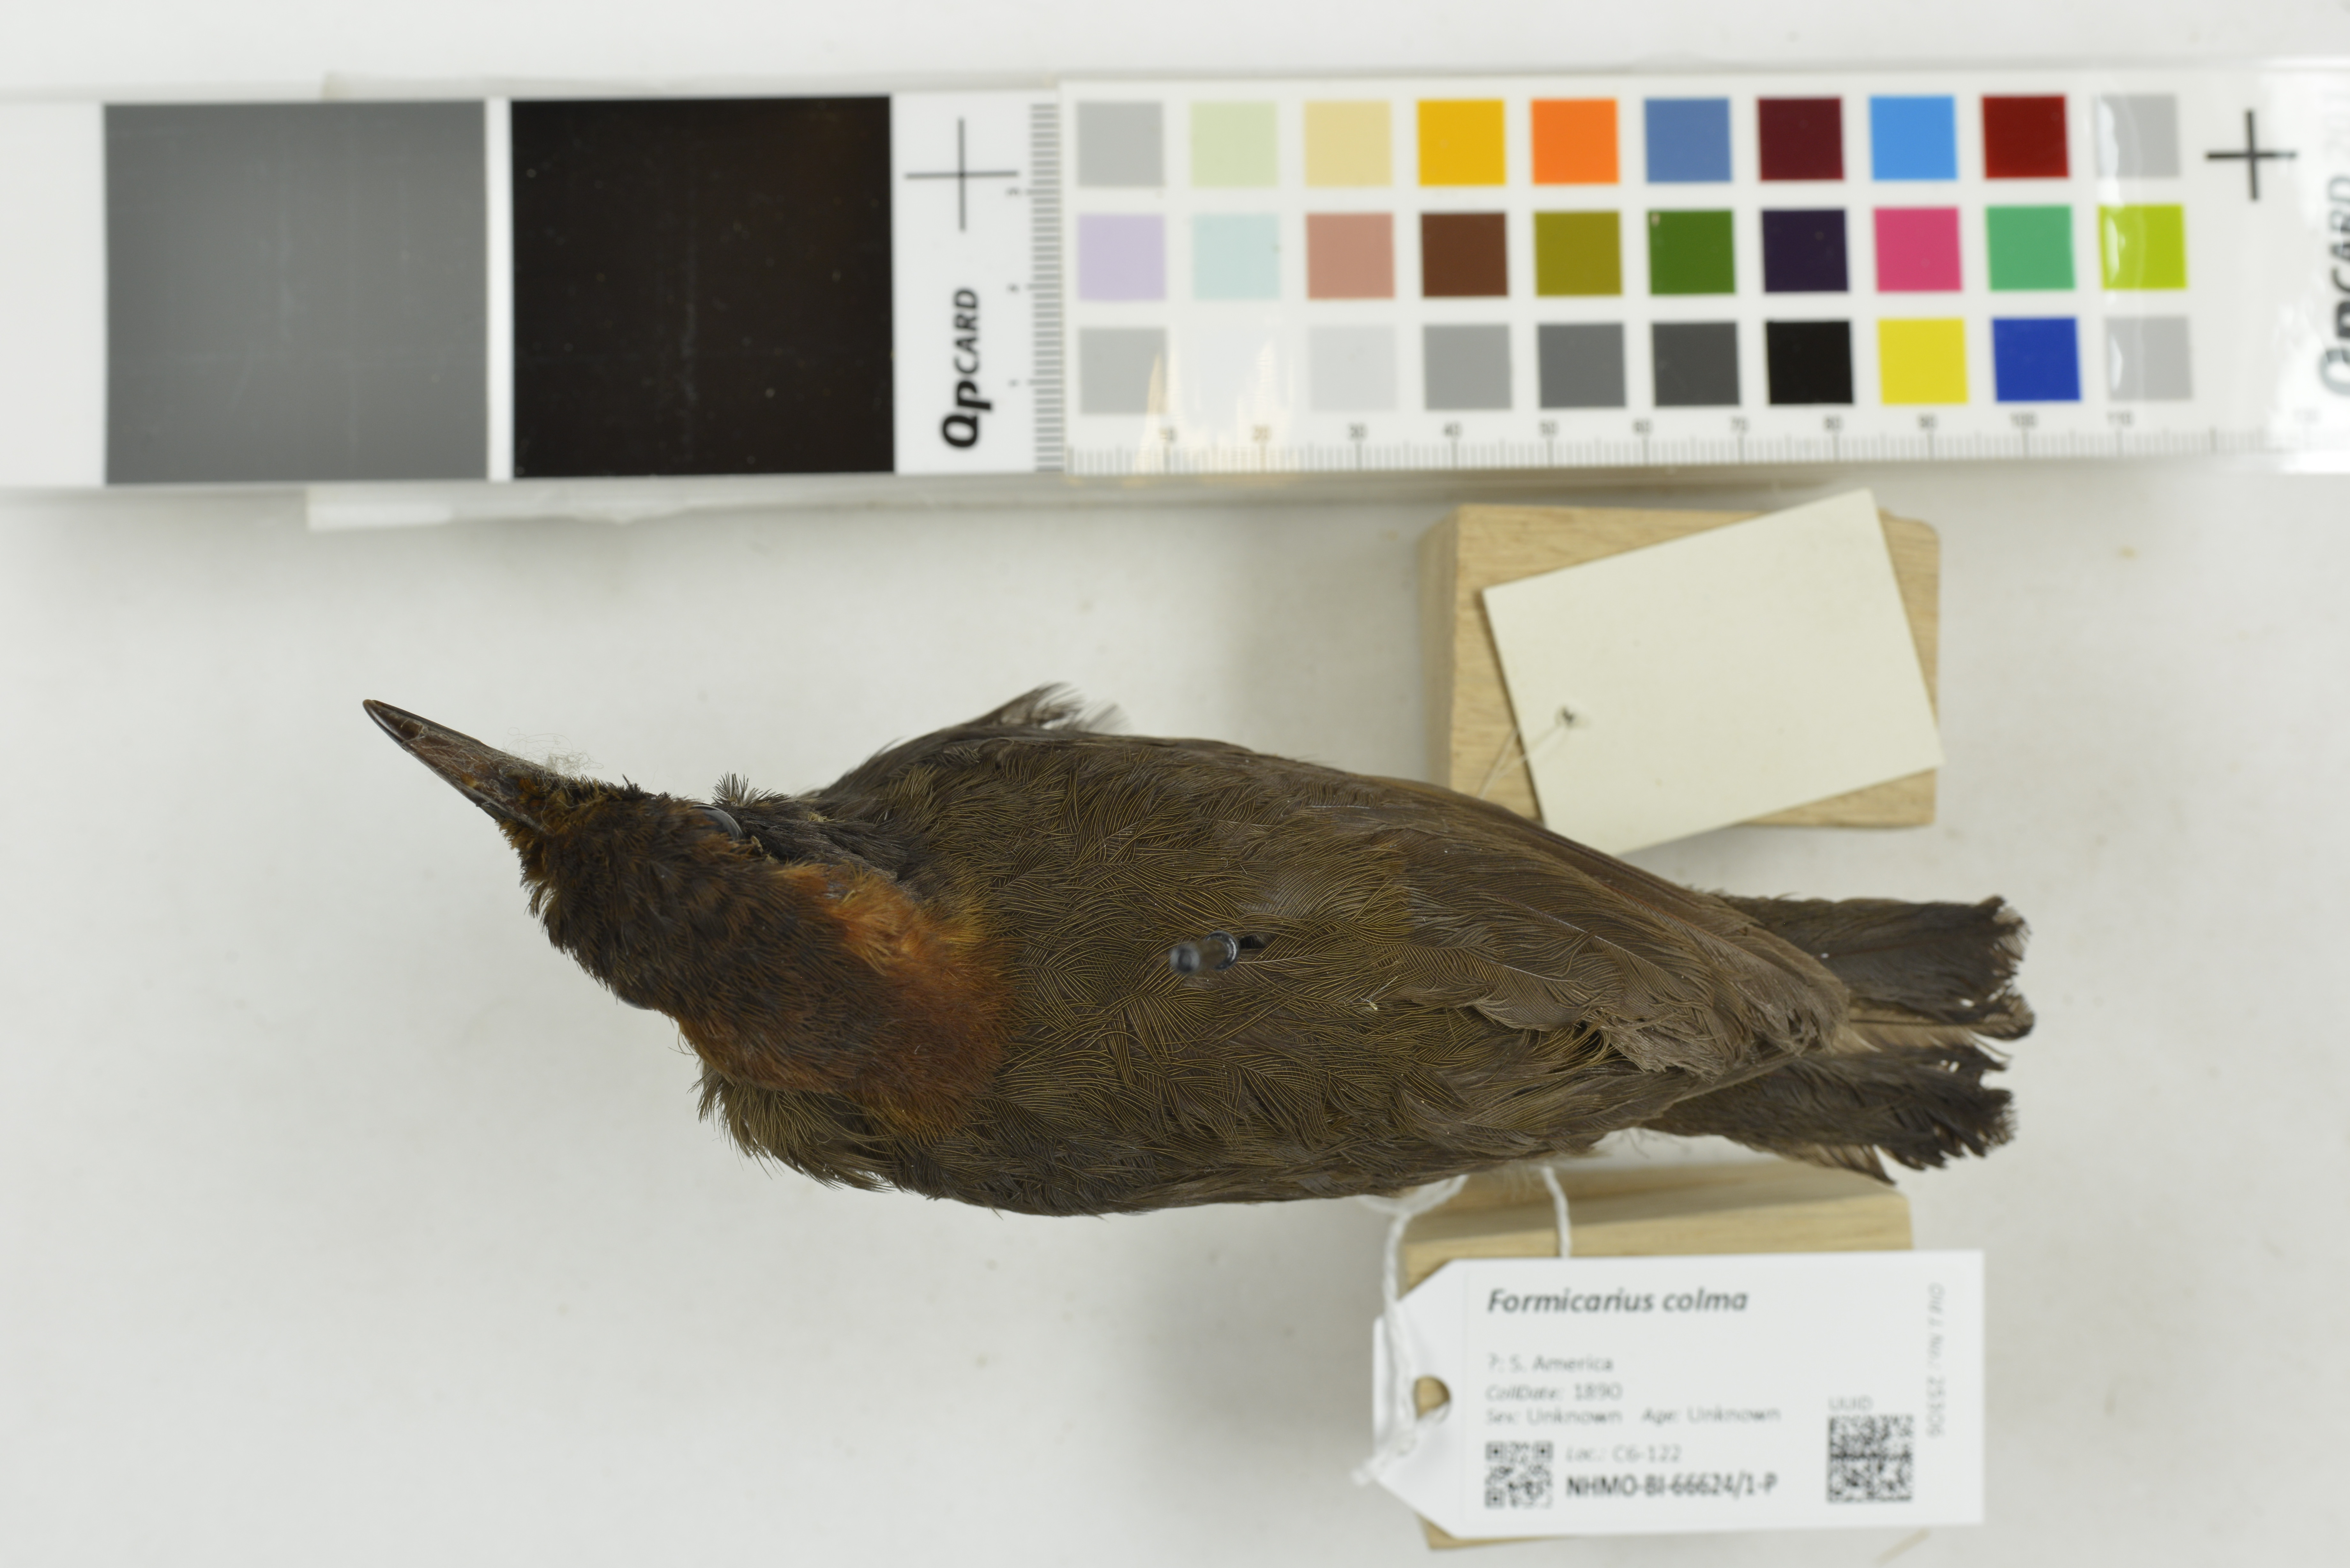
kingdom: Animalia
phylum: Chordata
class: Aves
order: Passeriformes
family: Formicariidae
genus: Formicarius
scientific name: Formicarius colma
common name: Rufous-capped antthrush
